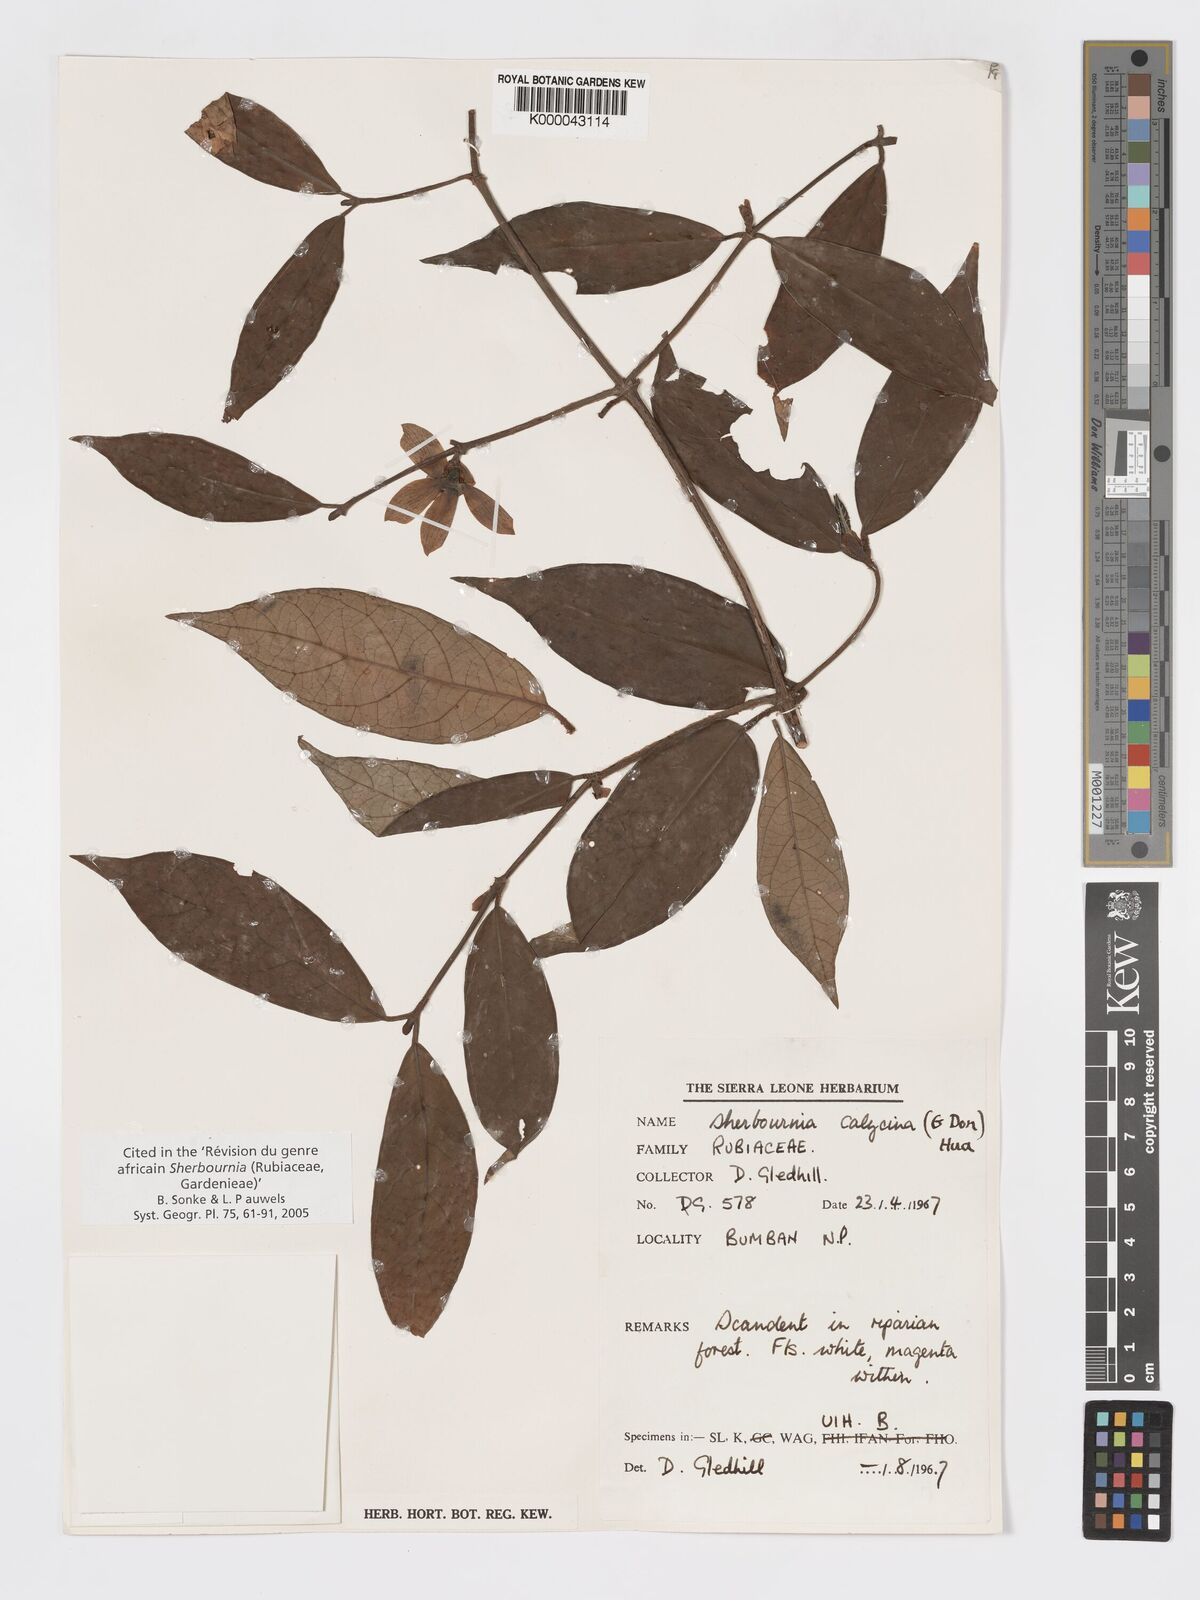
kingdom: Plantae
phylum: Tracheophyta
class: Magnoliopsida
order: Gentianales
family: Rubiaceae
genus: Sherbournia
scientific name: Sherbournia calycina
